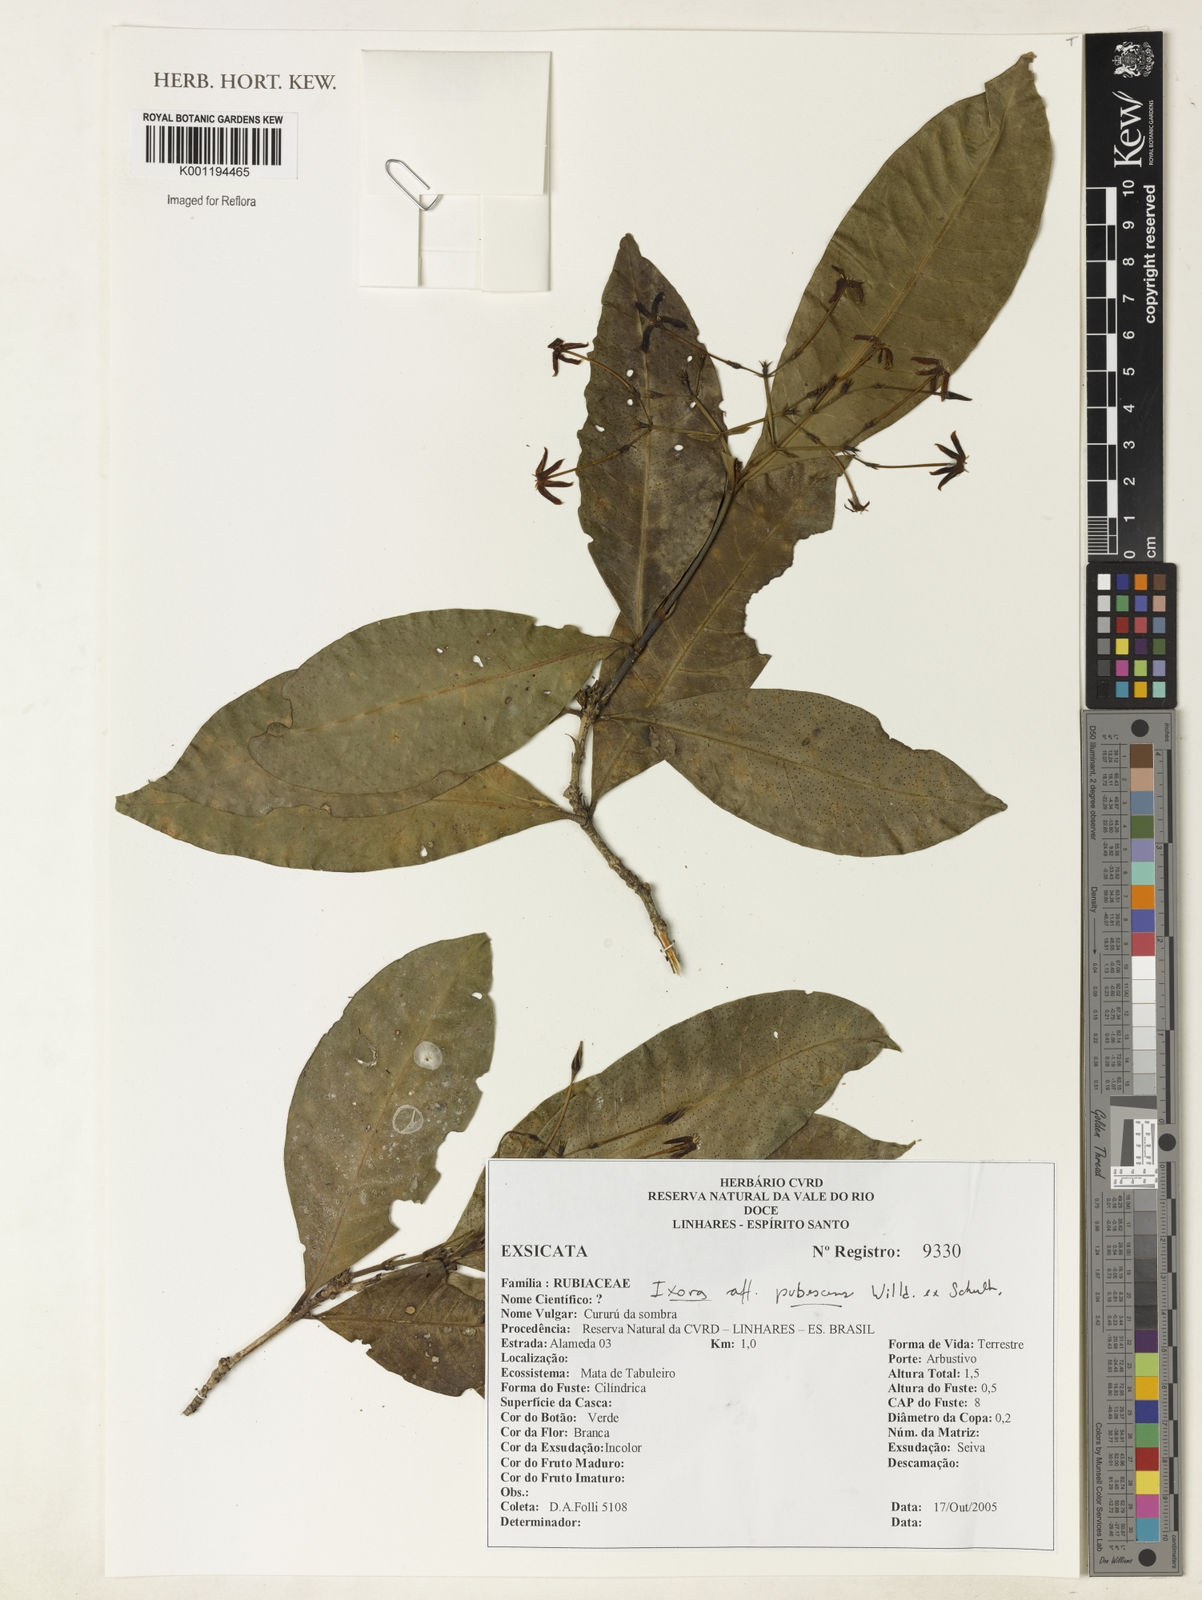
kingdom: Plantae
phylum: Tracheophyta
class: Magnoliopsida
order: Gentianales
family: Rubiaceae
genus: Ixora
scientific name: Ixora
